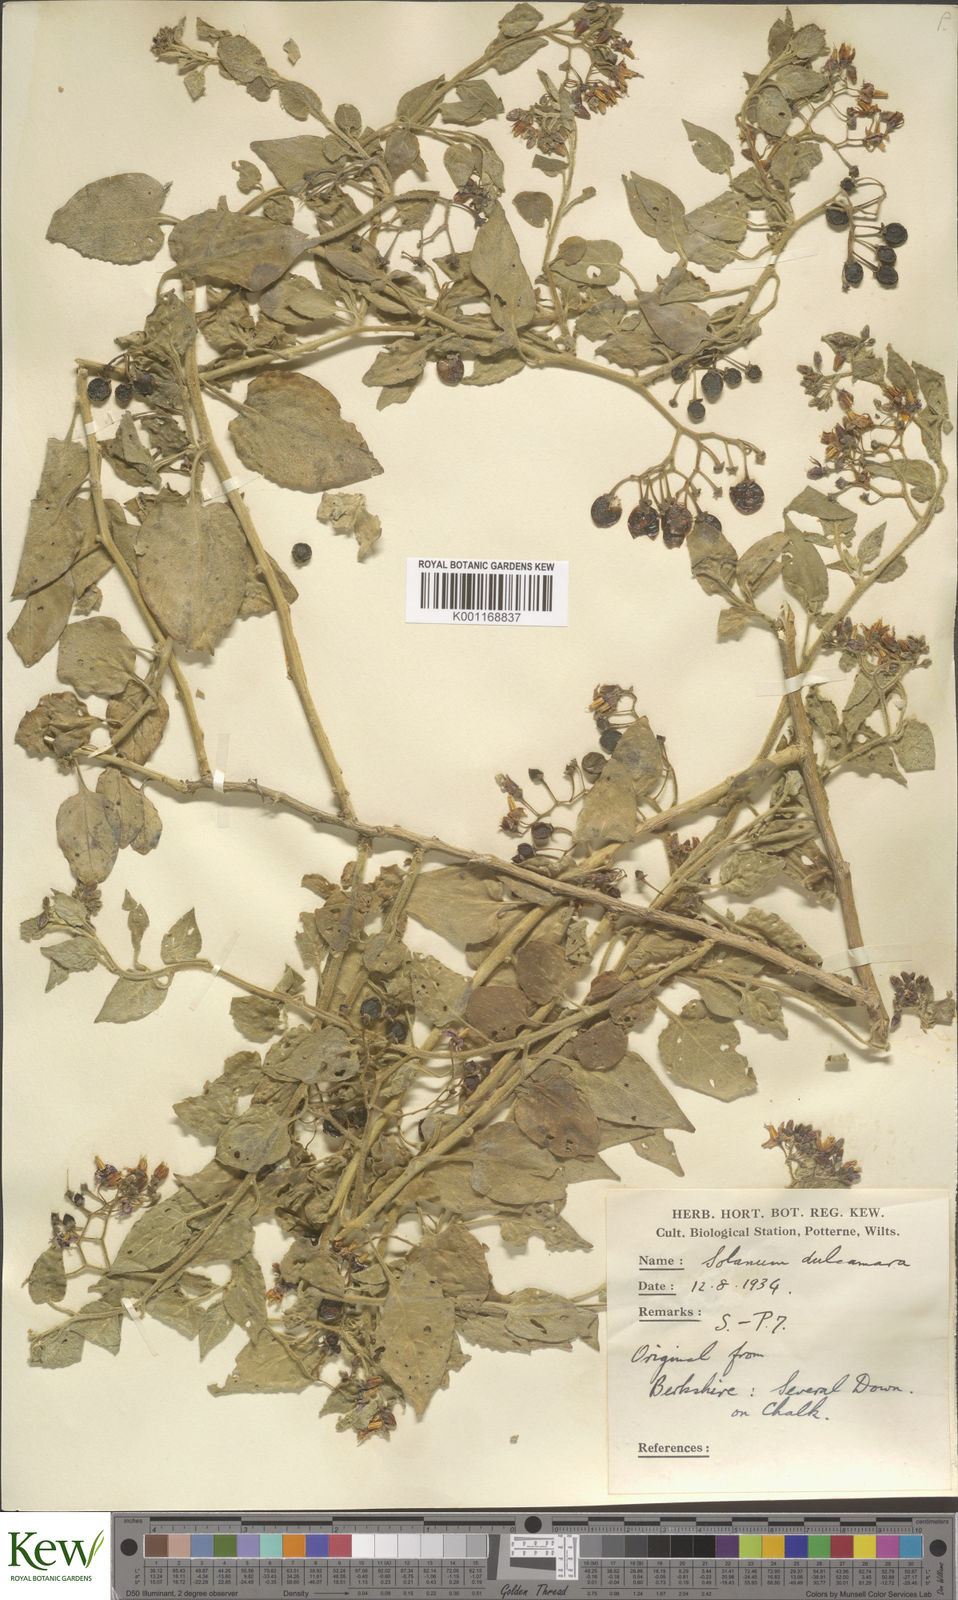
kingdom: Plantae
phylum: Tracheophyta
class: Magnoliopsida
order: Solanales
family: Solanaceae
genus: Solanum
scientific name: Solanum dulcamara
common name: Climbing nightshade
